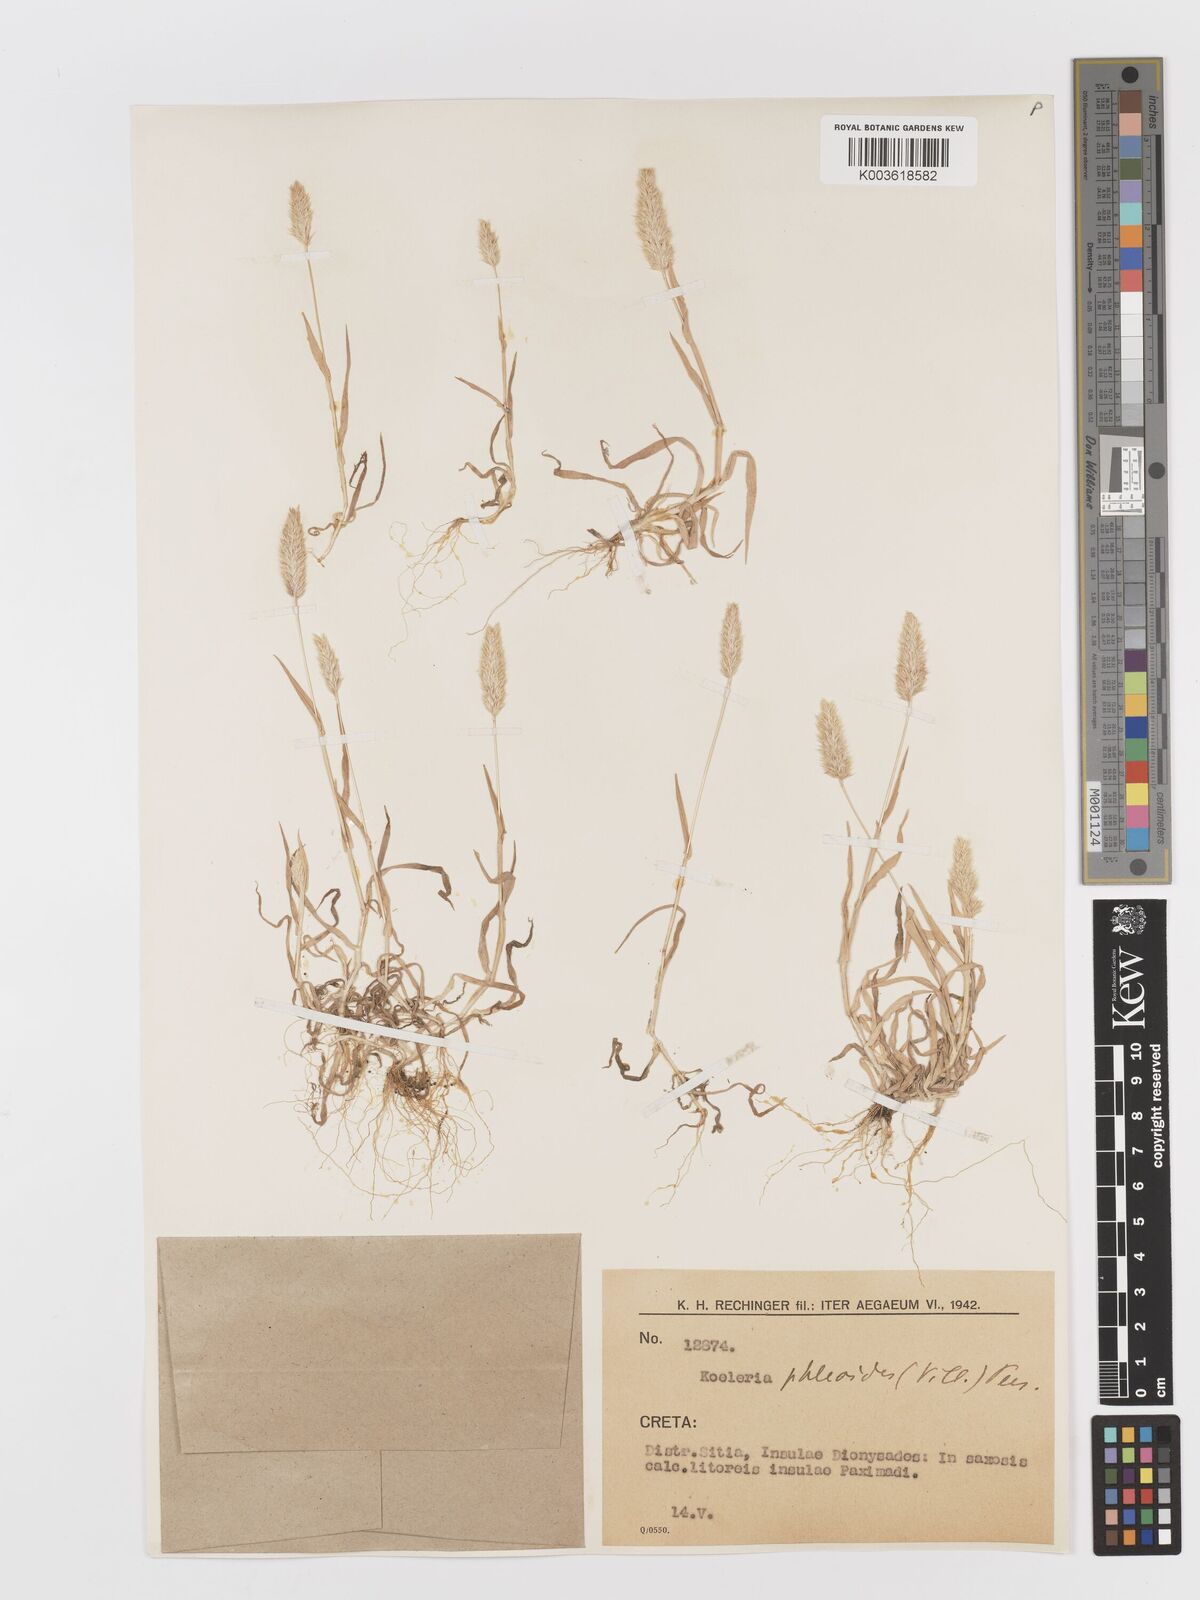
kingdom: Plantae
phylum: Tracheophyta
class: Liliopsida
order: Poales
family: Poaceae
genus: Rostraria
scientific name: Rostraria cristata
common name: Mediterranean hair-grass
